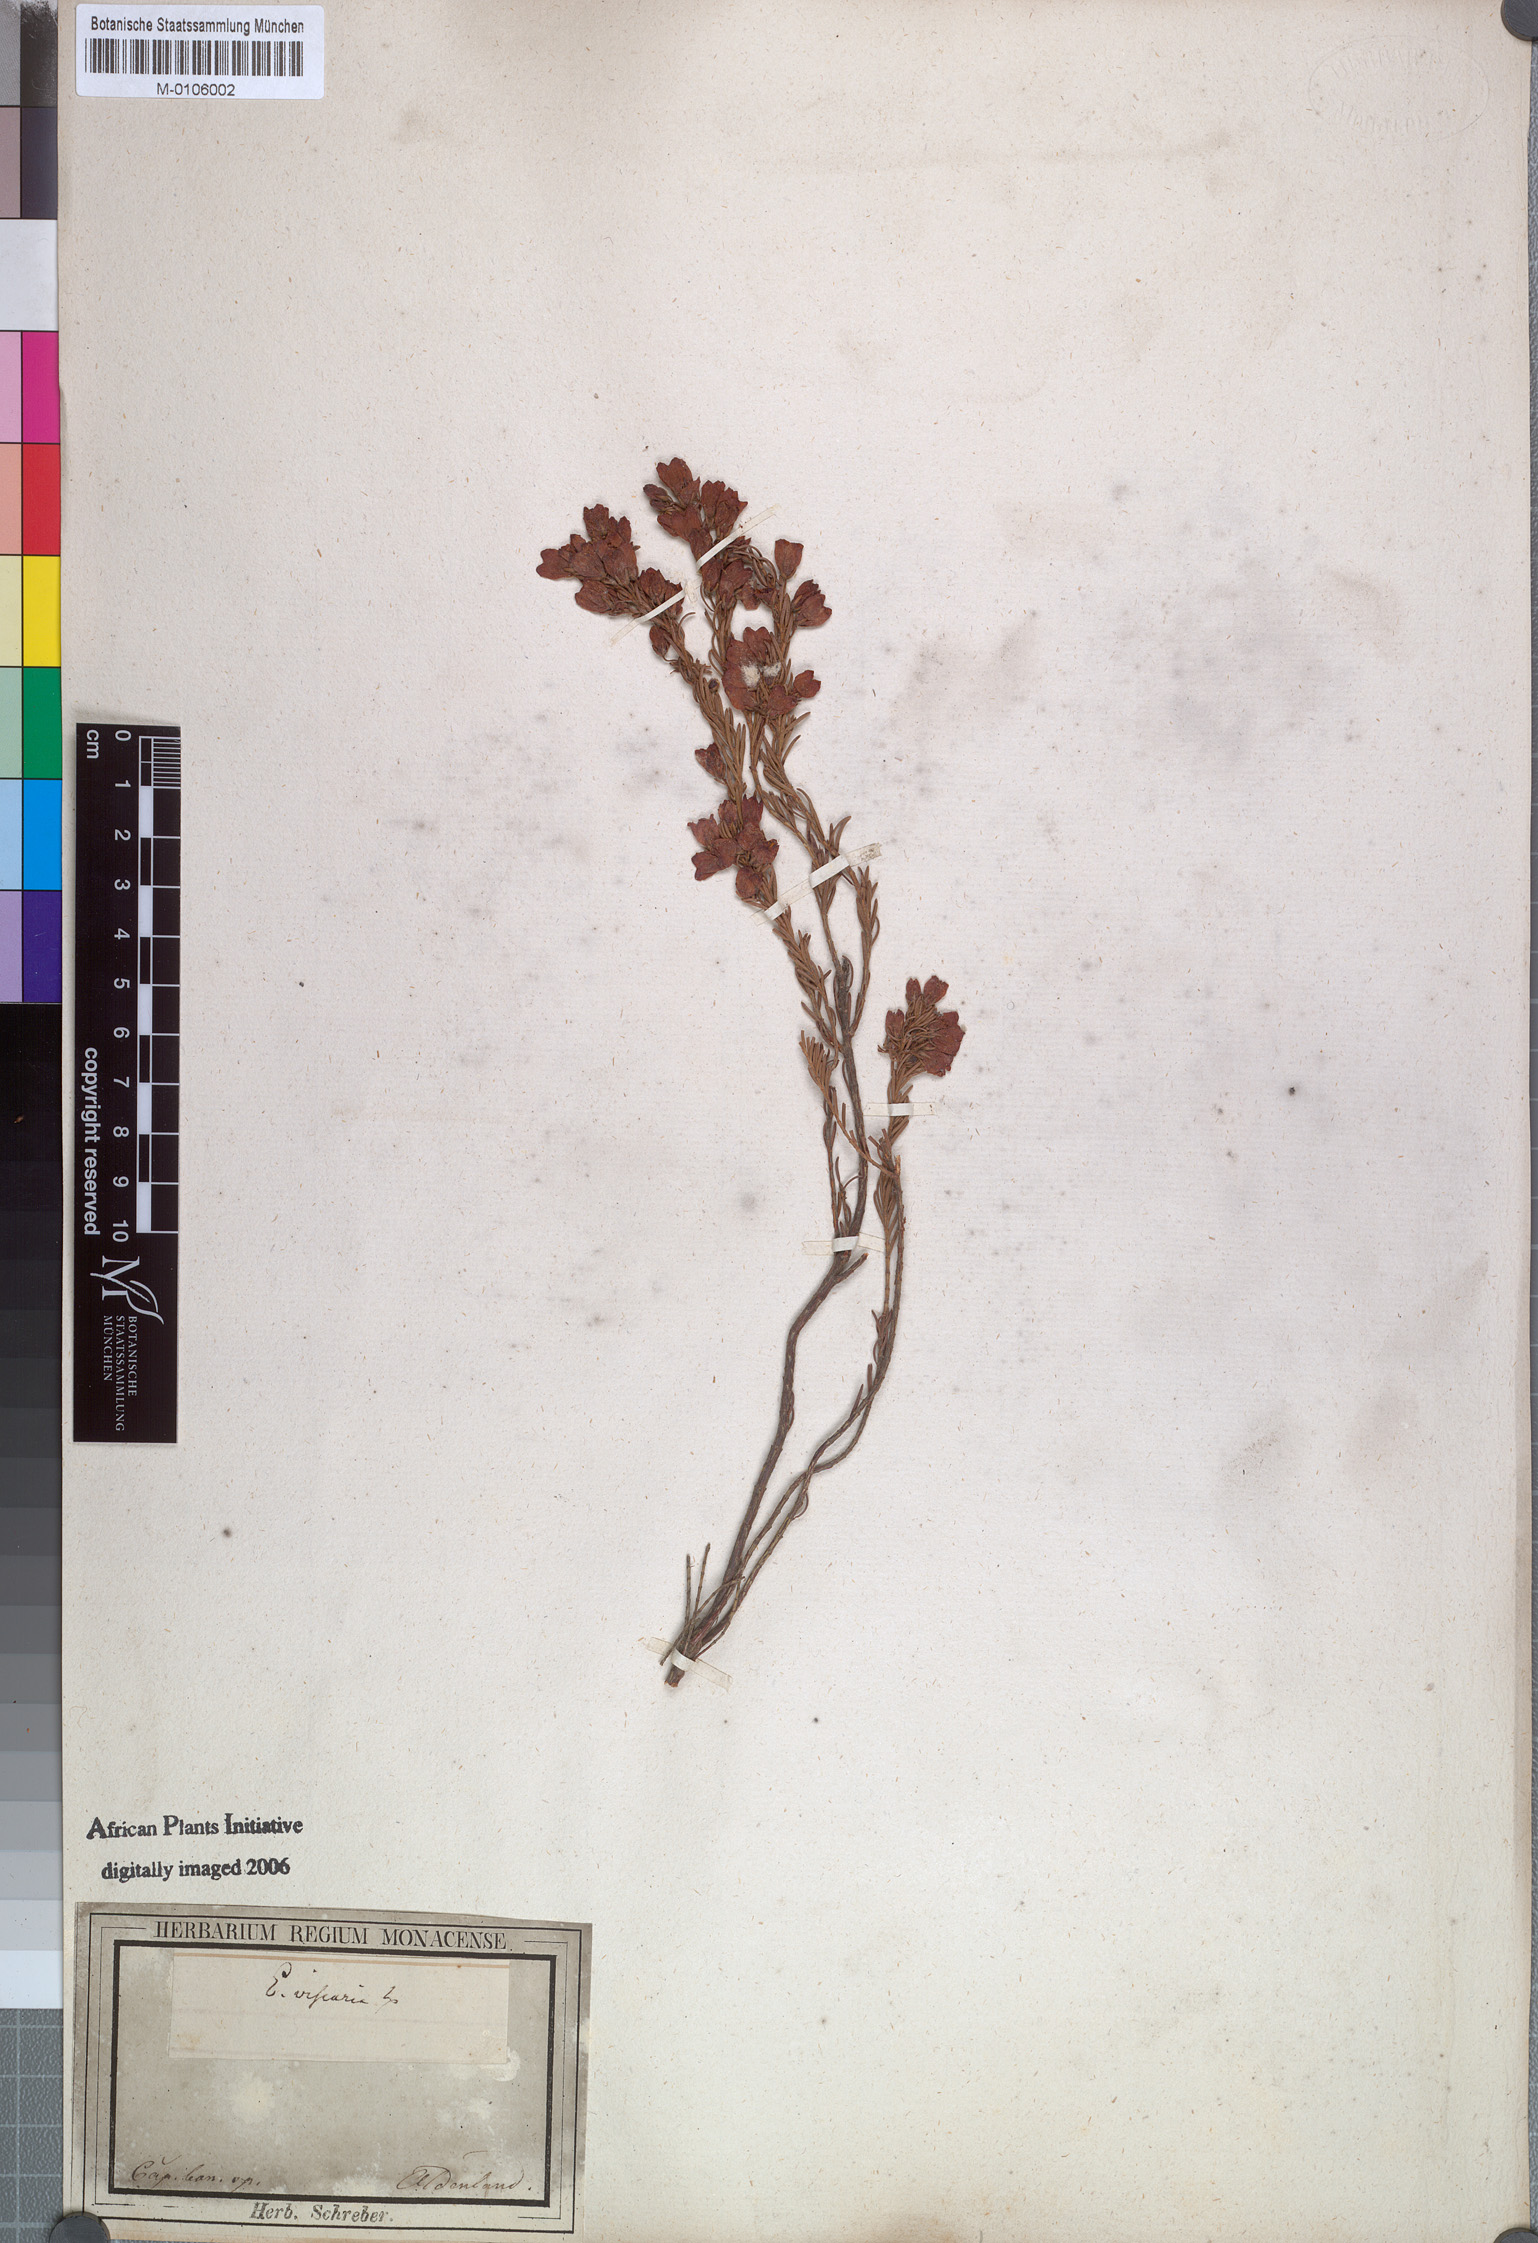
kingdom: Plantae
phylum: Tracheophyta
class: Magnoliopsida
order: Ericales
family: Ericaceae
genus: Erica
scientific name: Erica viscaria
